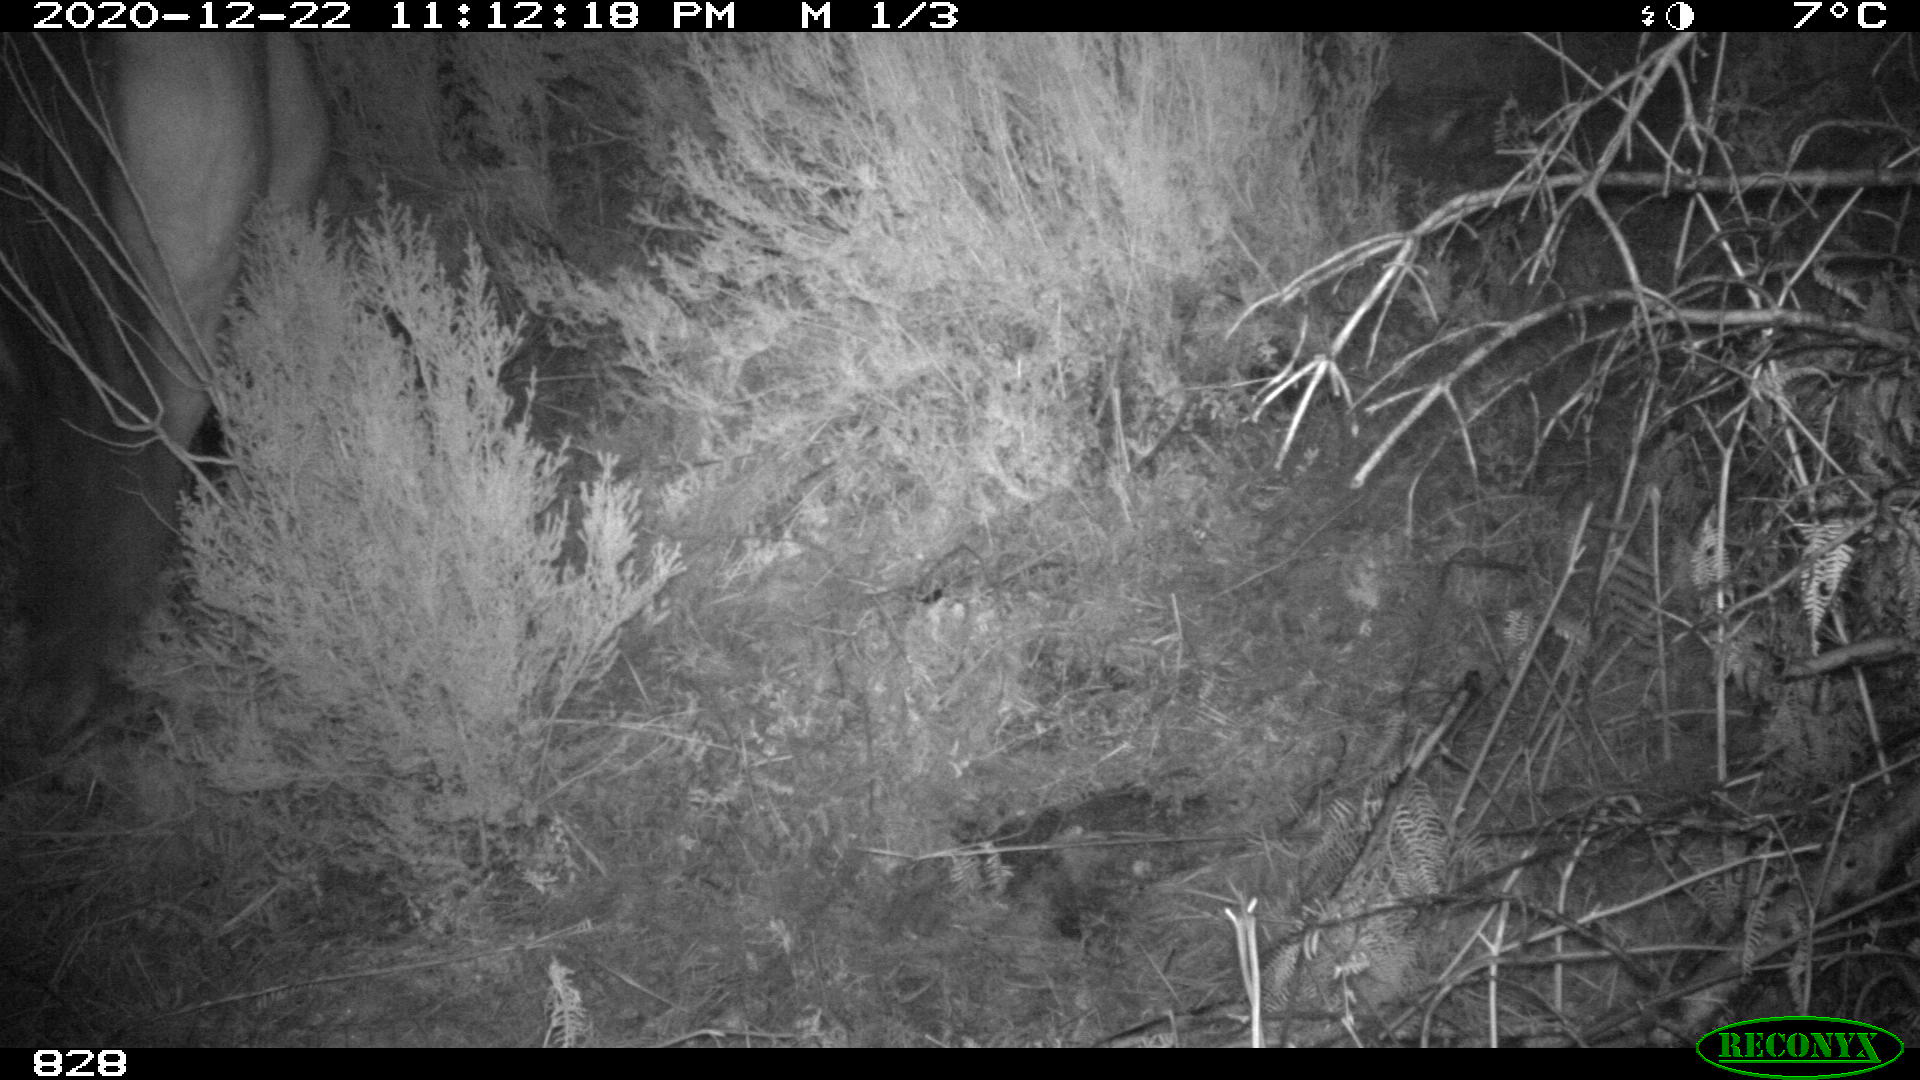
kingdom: Animalia
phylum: Chordata
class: Mammalia
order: Perissodactyla
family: Equidae
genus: Equus
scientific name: Equus caballus
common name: Horse
